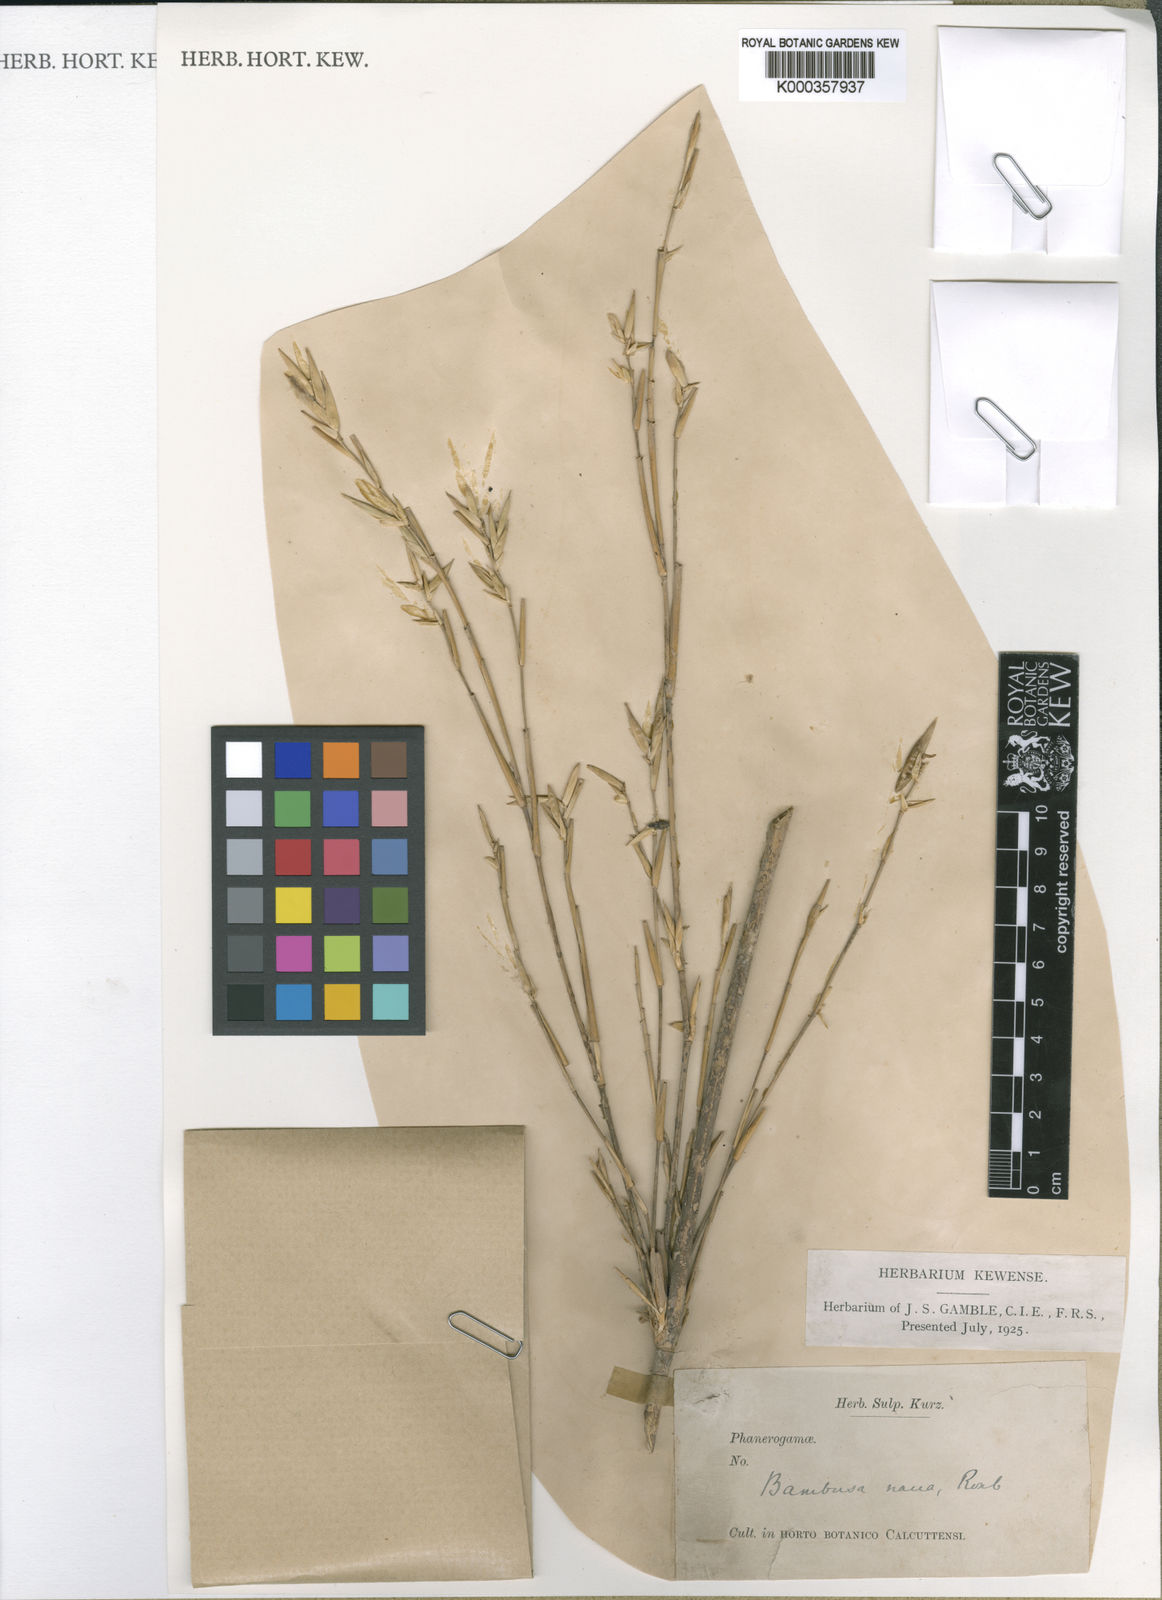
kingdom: Plantae
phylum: Tracheophyta
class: Liliopsida
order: Poales
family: Poaceae
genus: Bambusa
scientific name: Bambusa multiplex
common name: Hedge bamboo
